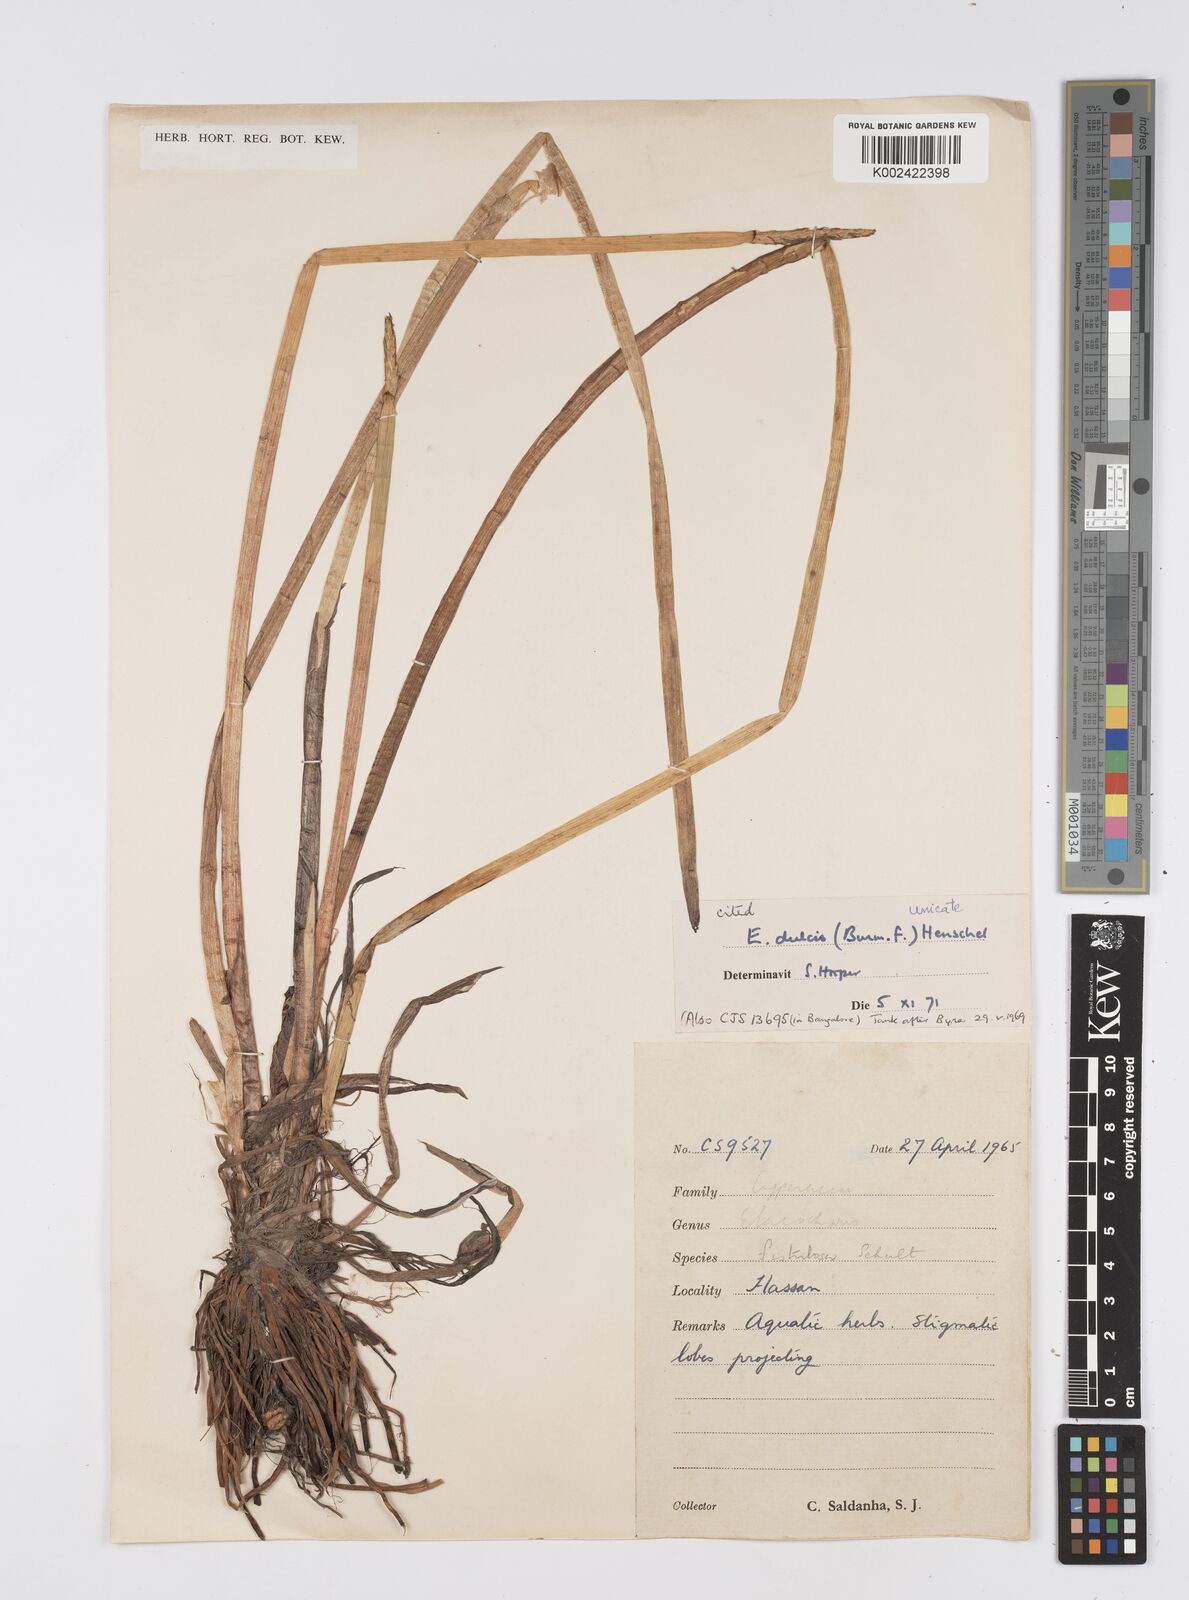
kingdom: Plantae
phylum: Tracheophyta
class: Liliopsida
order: Poales
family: Cyperaceae
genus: Eleocharis
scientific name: Eleocharis dulcis
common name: Chinese water chestnut
